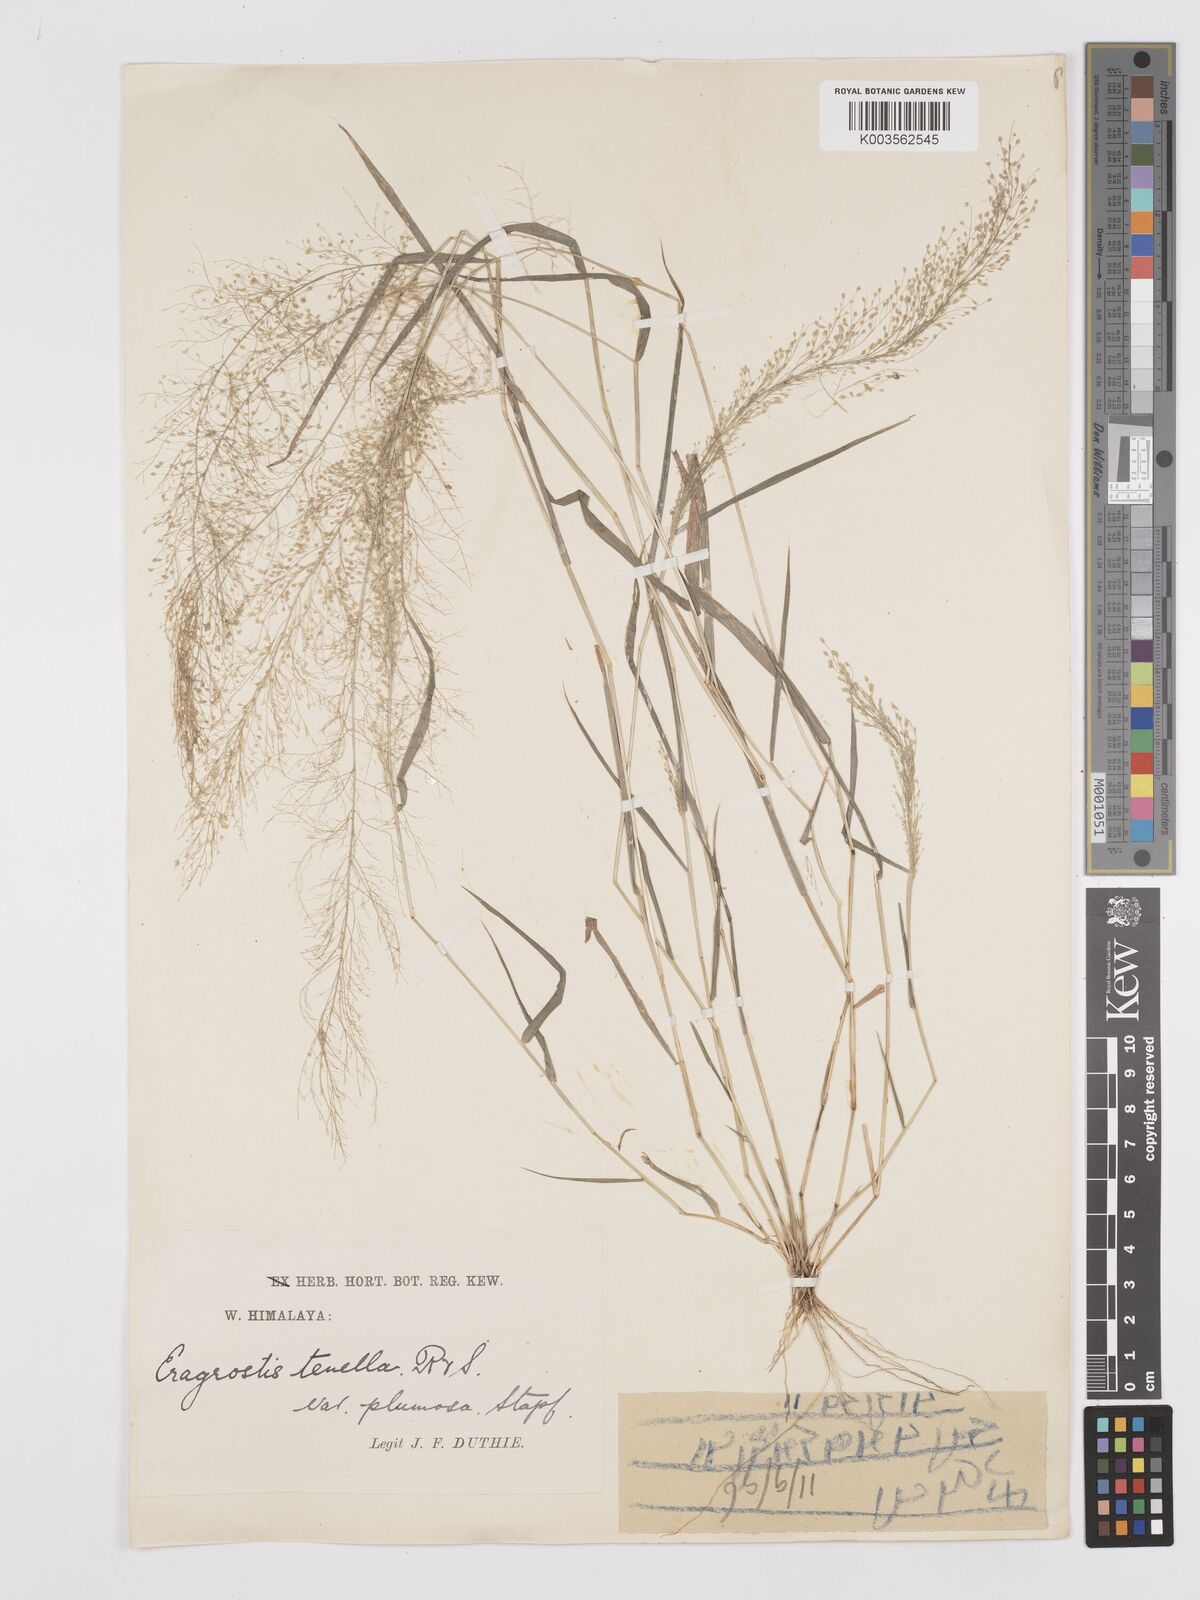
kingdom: Plantae
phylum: Tracheophyta
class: Liliopsida
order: Poales
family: Poaceae
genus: Eragrostis
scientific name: Eragrostis tenella
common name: Japanese lovegrass
